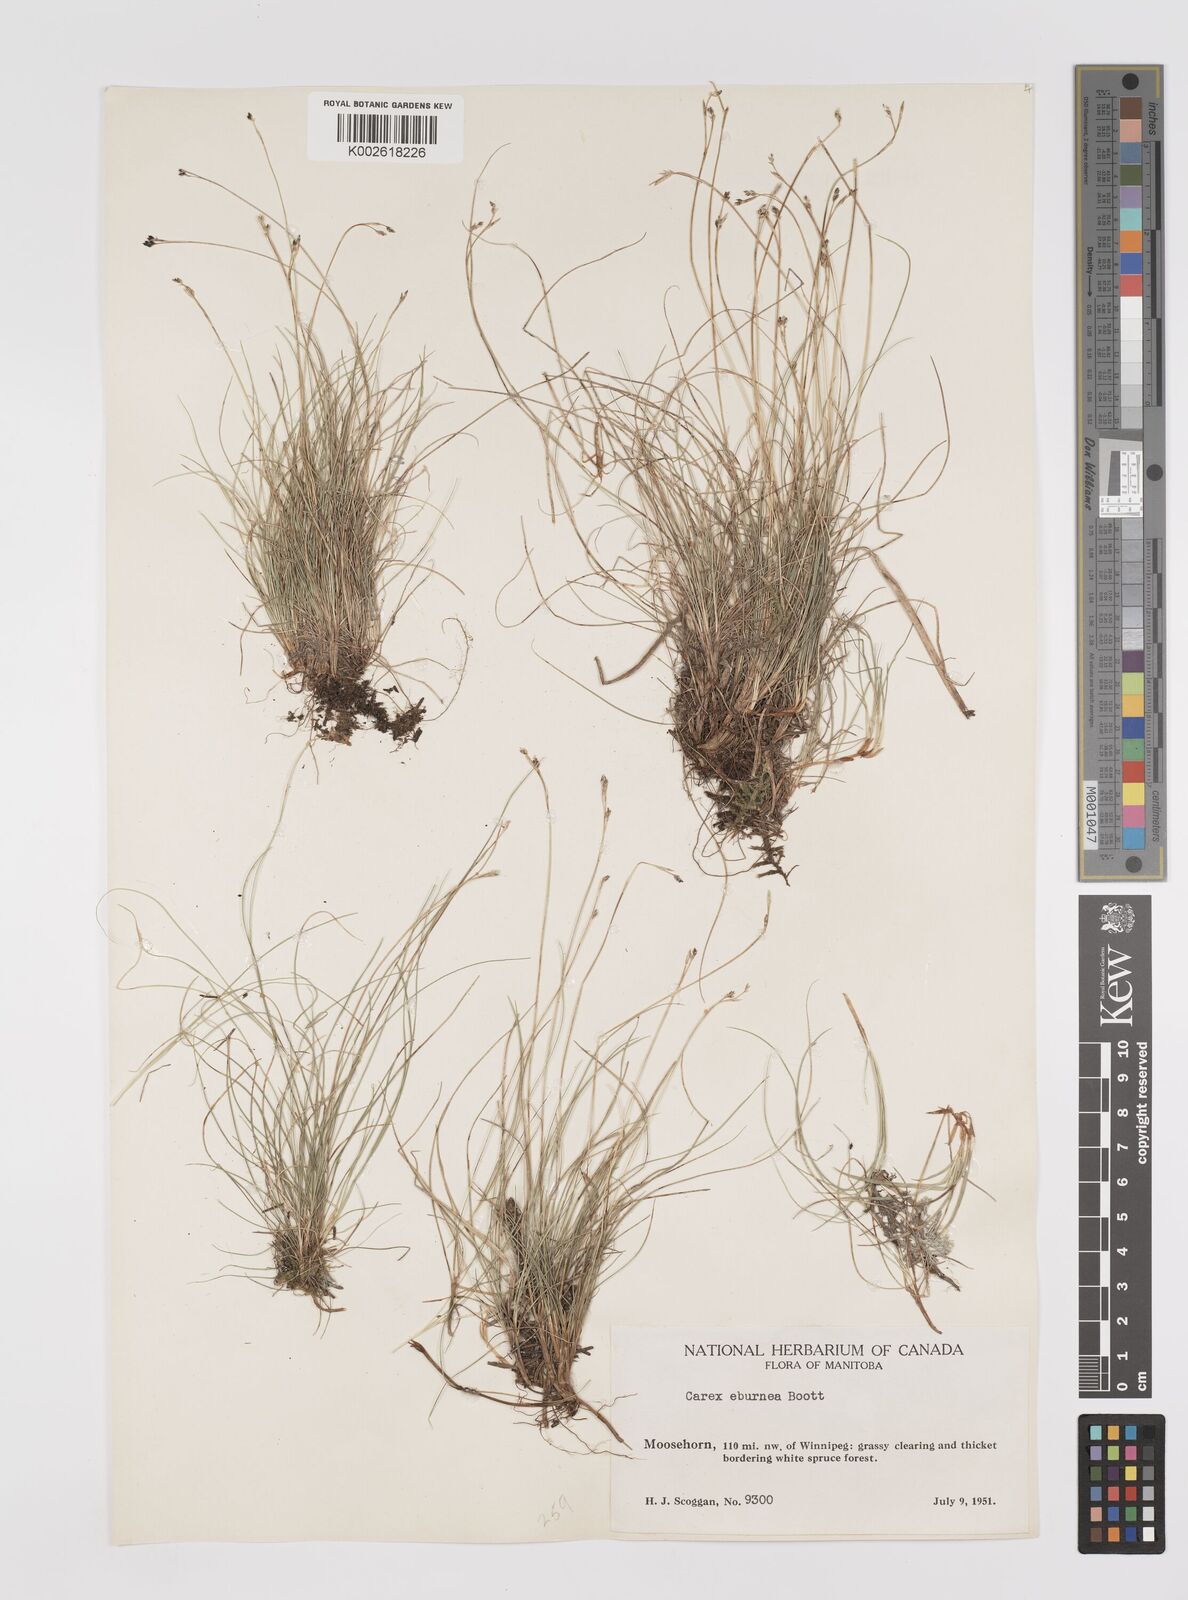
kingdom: Plantae
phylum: Tracheophyta
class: Liliopsida
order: Poales
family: Cyperaceae
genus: Carex
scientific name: Carex eburnea
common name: Bristle-leaved sedge
